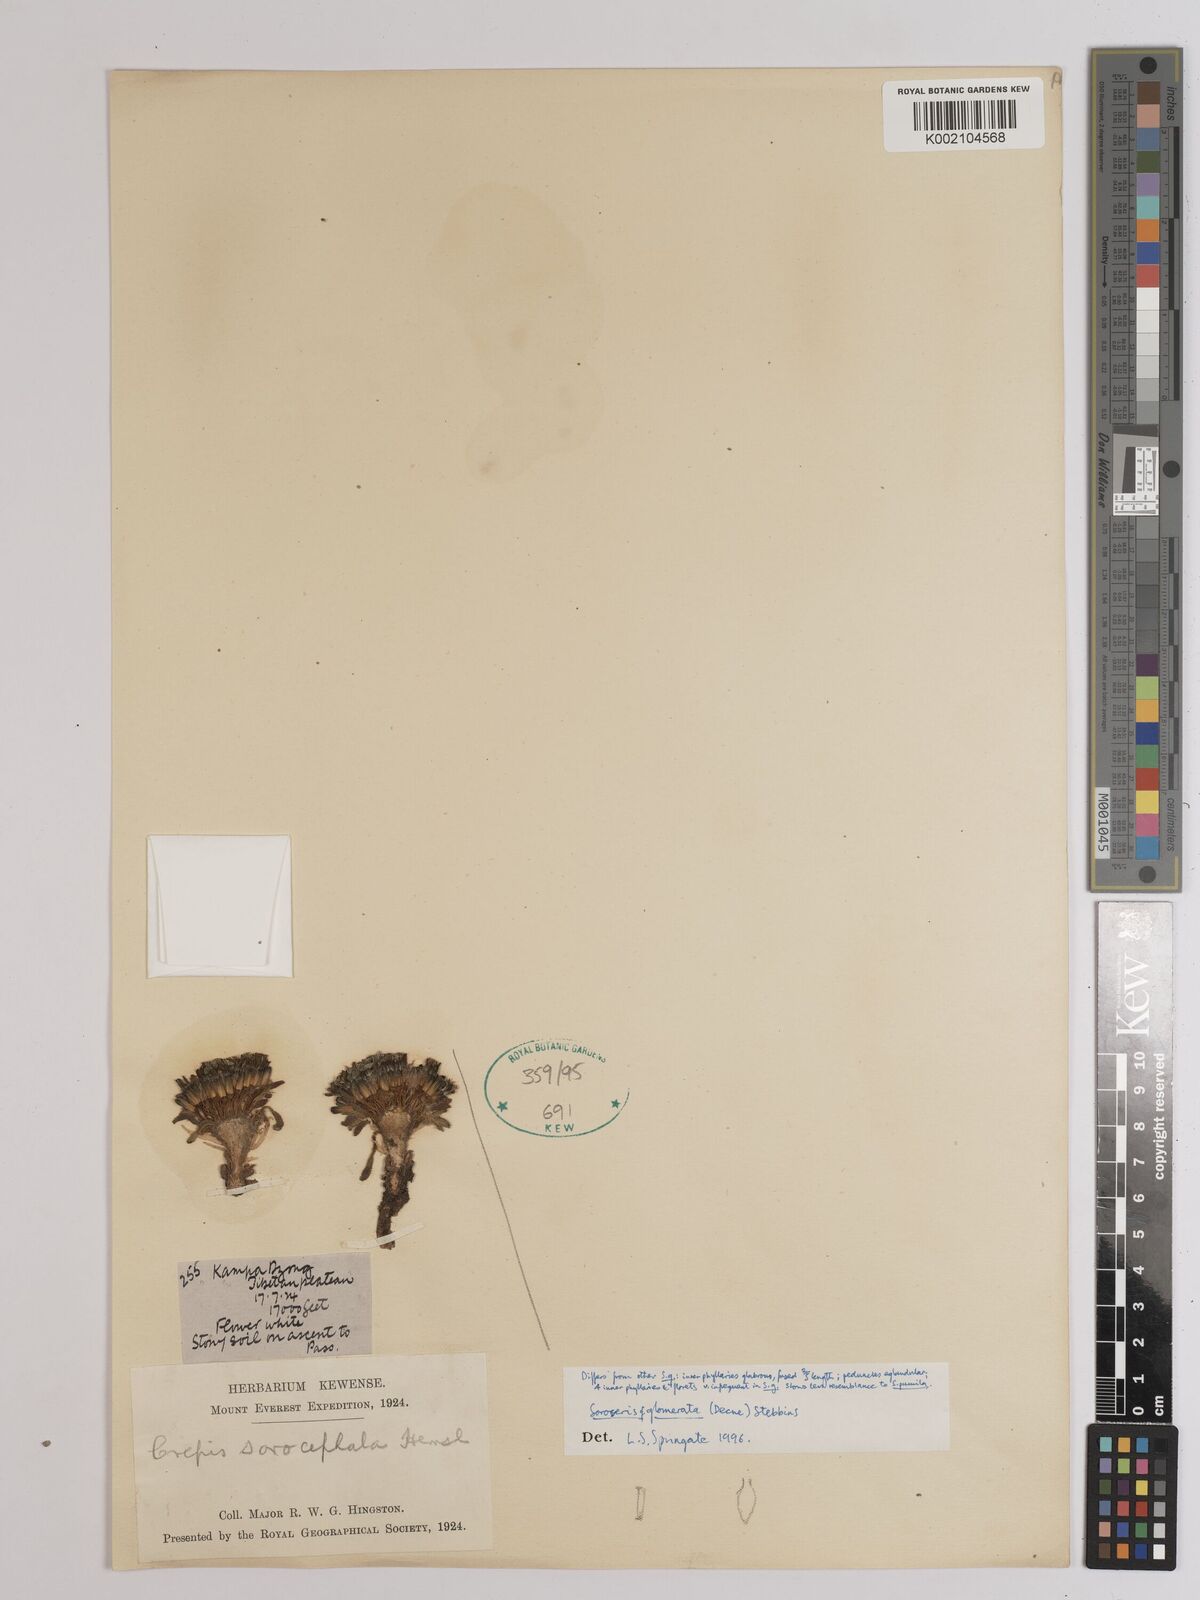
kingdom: Plantae
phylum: Tracheophyta
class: Magnoliopsida
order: Asterales
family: Asteraceae
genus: Soroseris
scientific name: Soroseris glomerata
